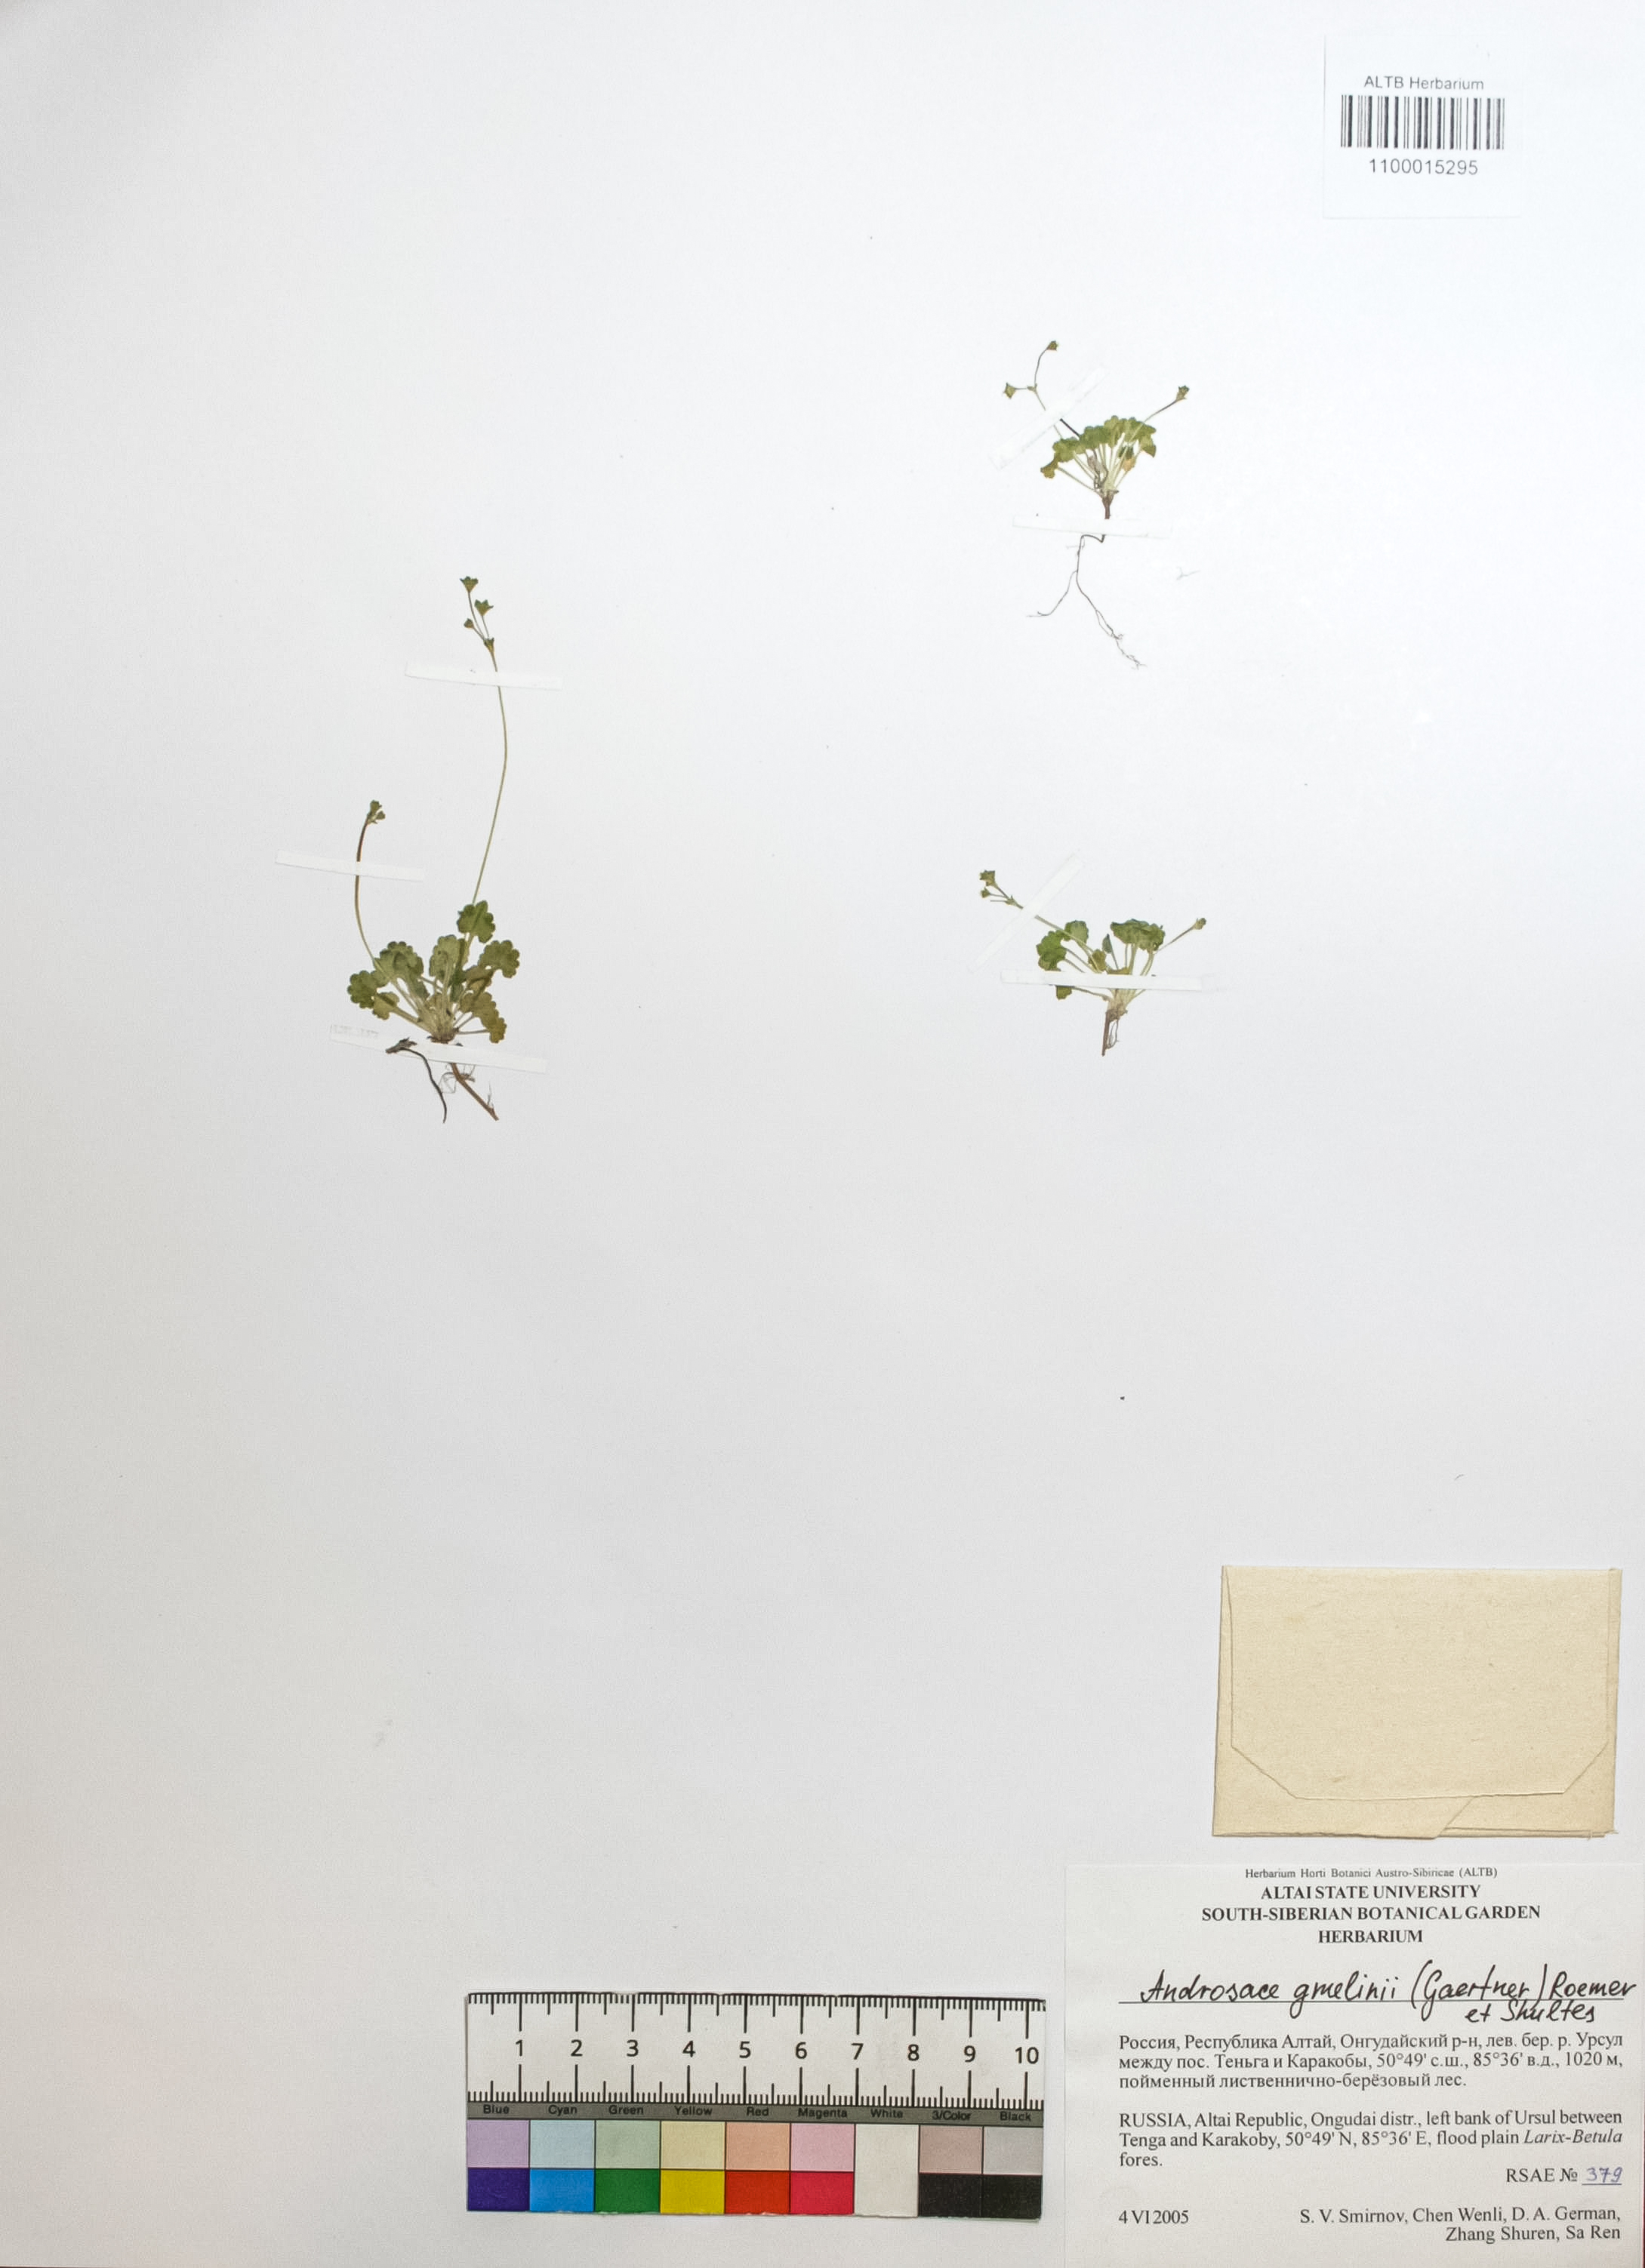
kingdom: Plantae
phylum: Tracheophyta
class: Magnoliopsida
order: Ericales
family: Primulaceae
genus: Androsace
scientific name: Androsace gmelinii
